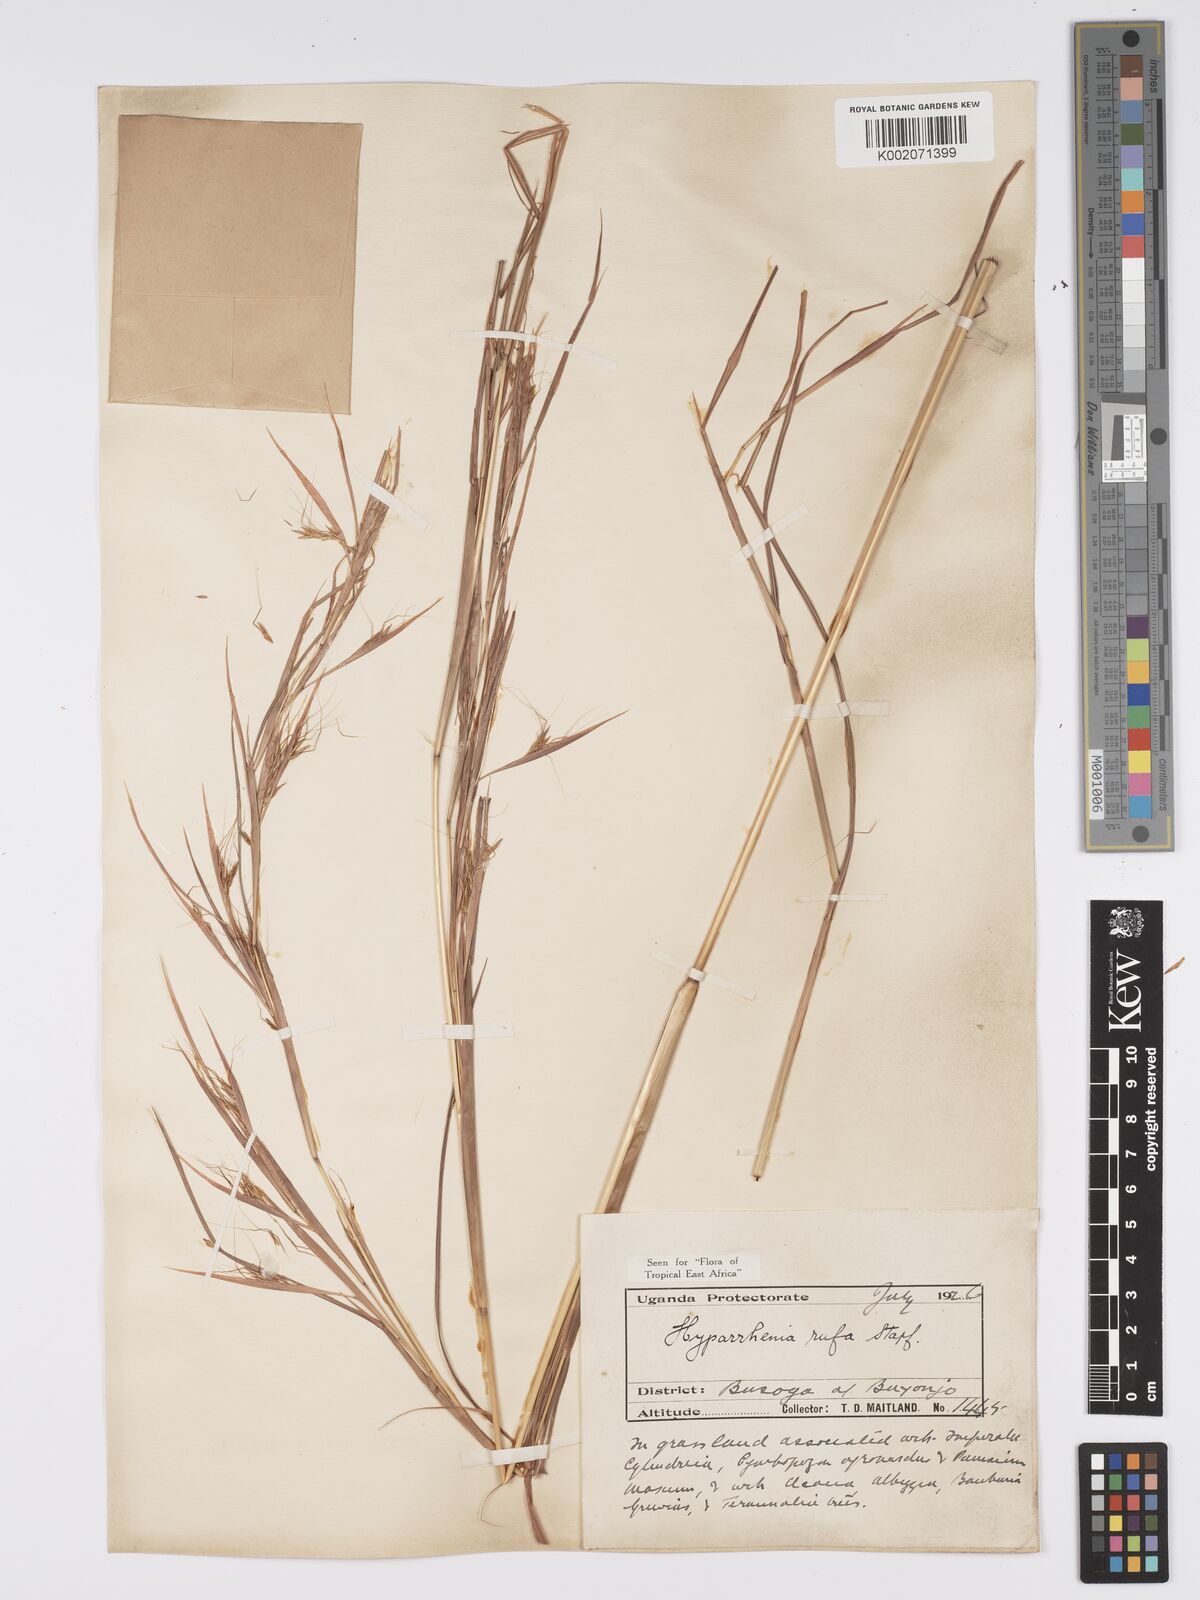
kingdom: Plantae
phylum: Tracheophyta
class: Liliopsida
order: Poales
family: Poaceae
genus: Hyparrhenia
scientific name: Hyparrhenia rufa
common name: Jaraguagrass
